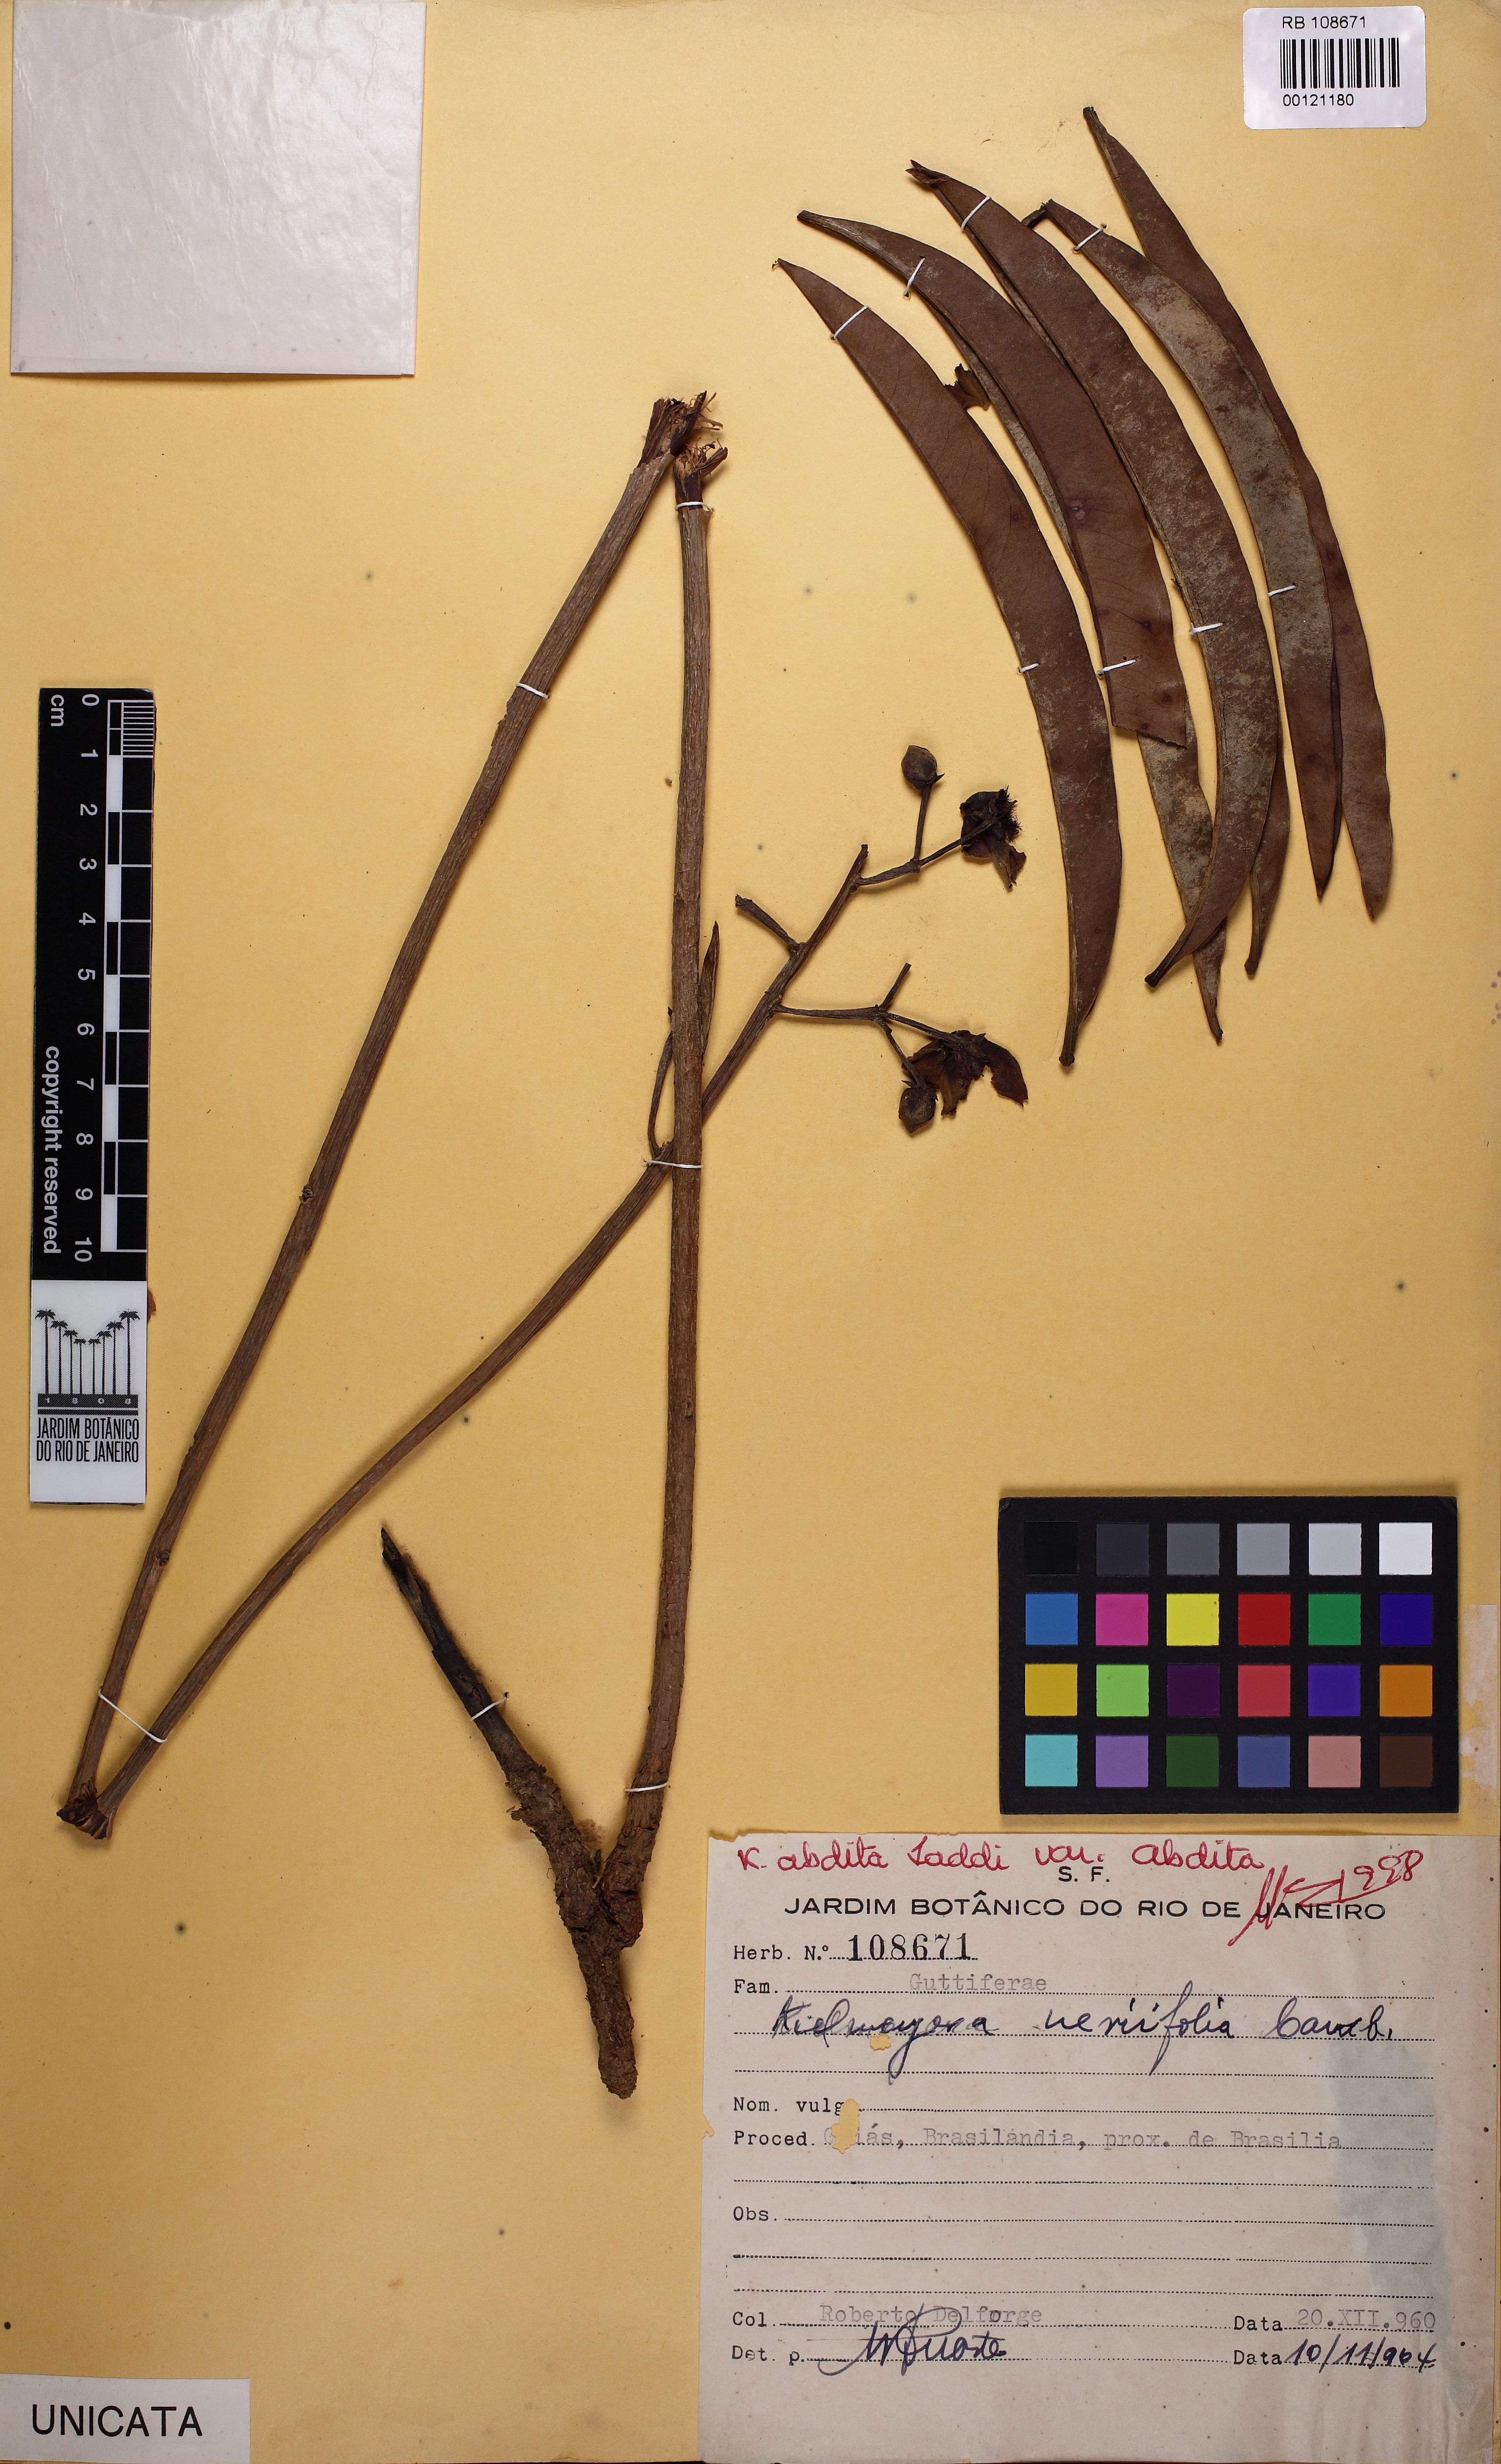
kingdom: Plantae
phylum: Tracheophyta
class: Magnoliopsida
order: Malpighiales
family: Calophyllaceae
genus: Kielmeyera
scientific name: Kielmeyera abdita
